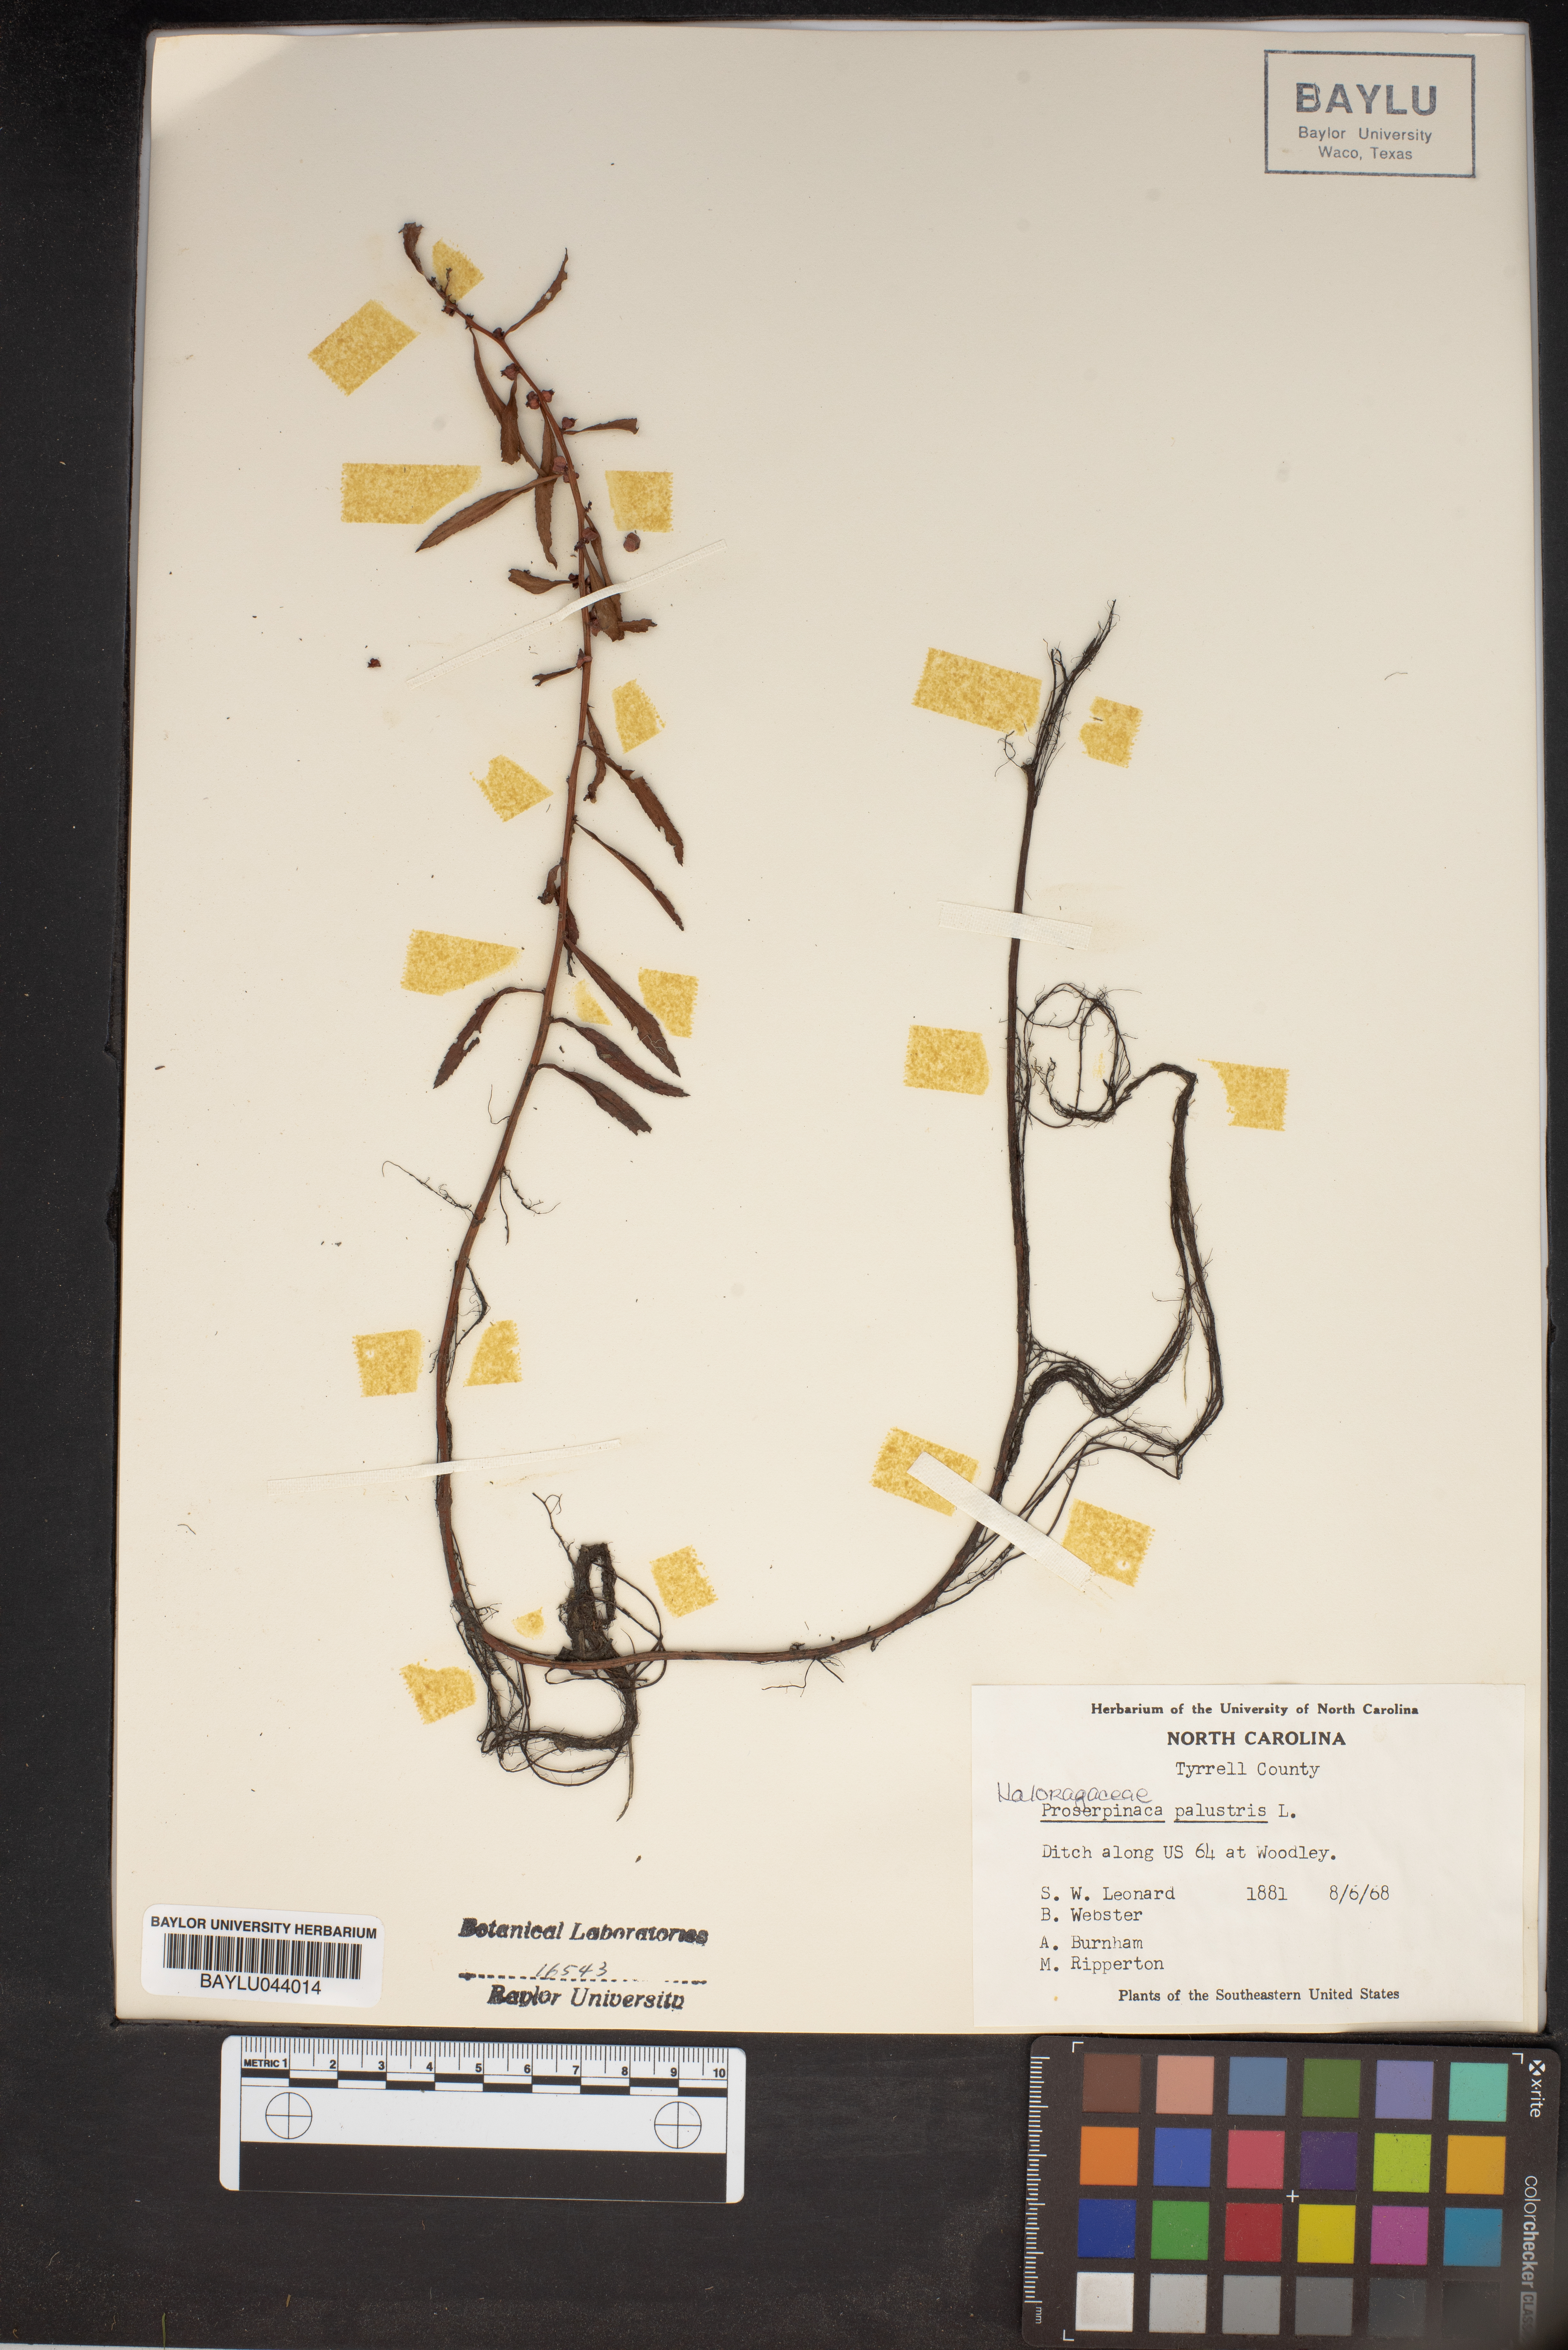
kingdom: Plantae
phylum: Tracheophyta
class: Magnoliopsida
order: Saxifragales
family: Haloragaceae
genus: Proserpinaca
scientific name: Proserpinaca palustris
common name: Marsh mermaidweed
